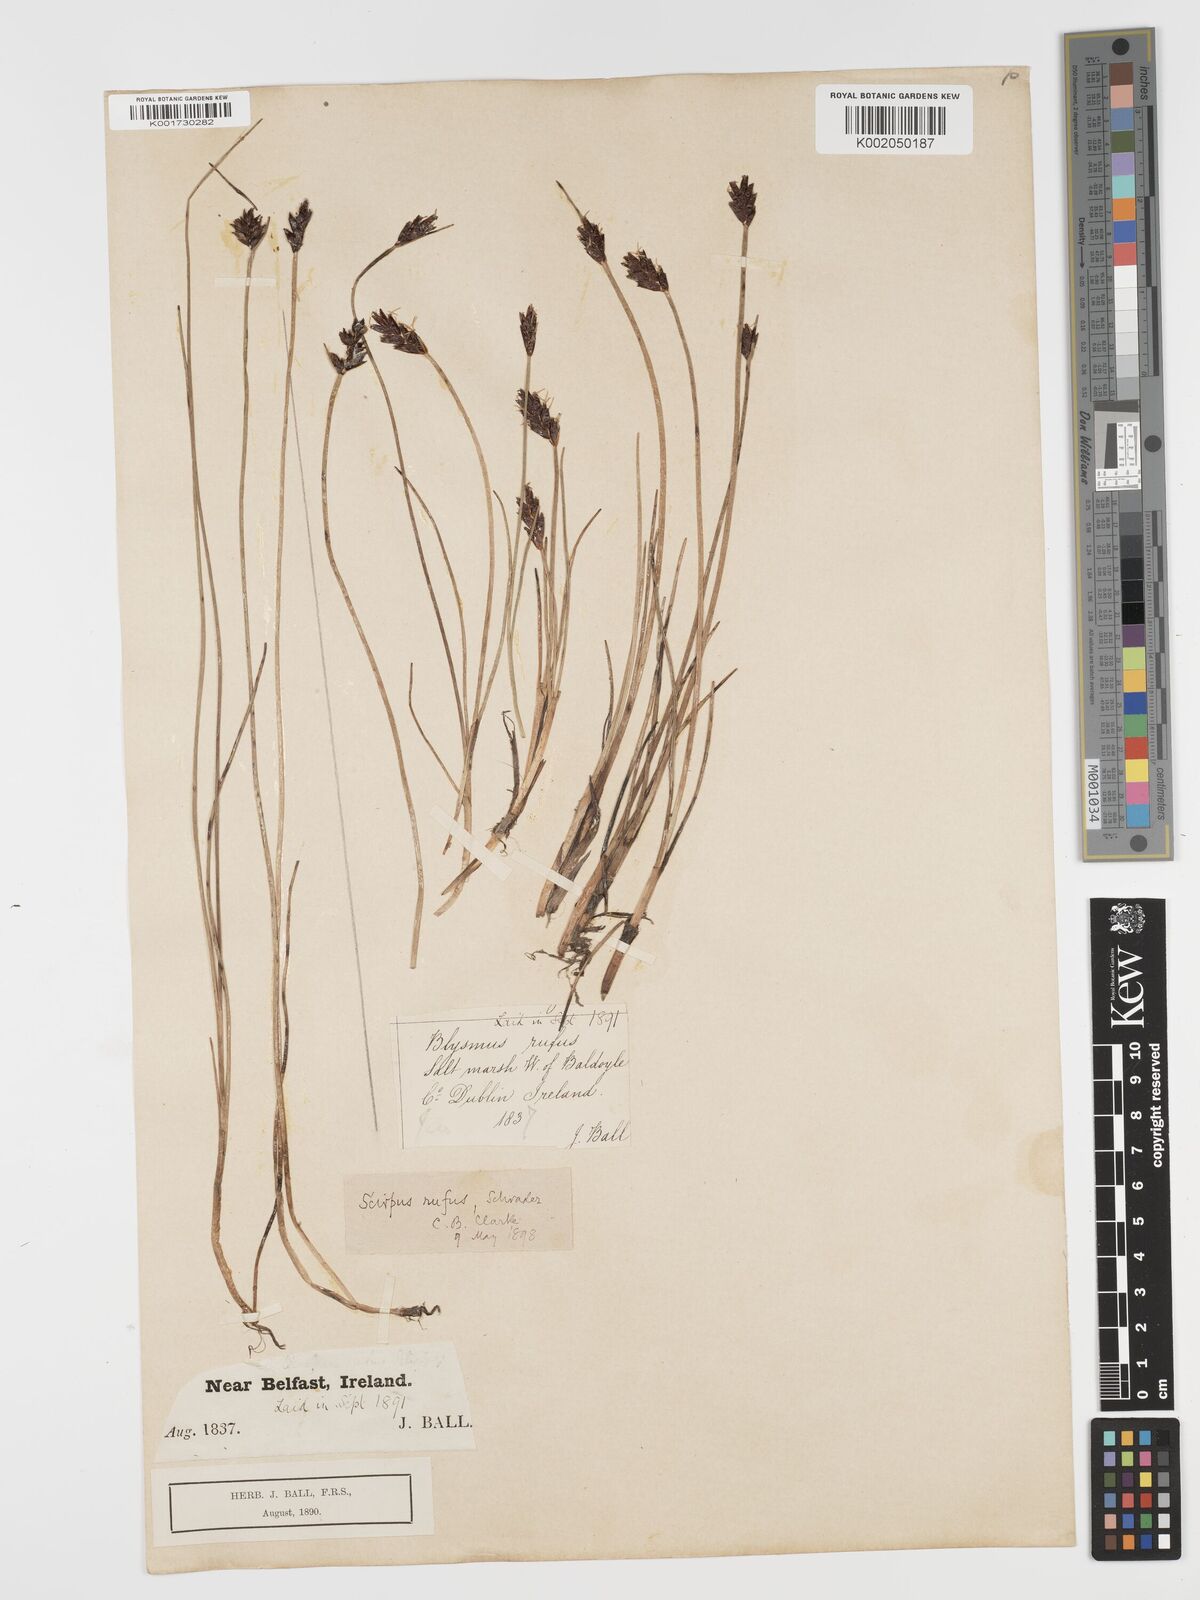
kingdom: Plantae
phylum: Tracheophyta
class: Liliopsida
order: Poales
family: Cyperaceae
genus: Blysmus
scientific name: Blysmus rufus
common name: Saltmarsh flat-sedge
